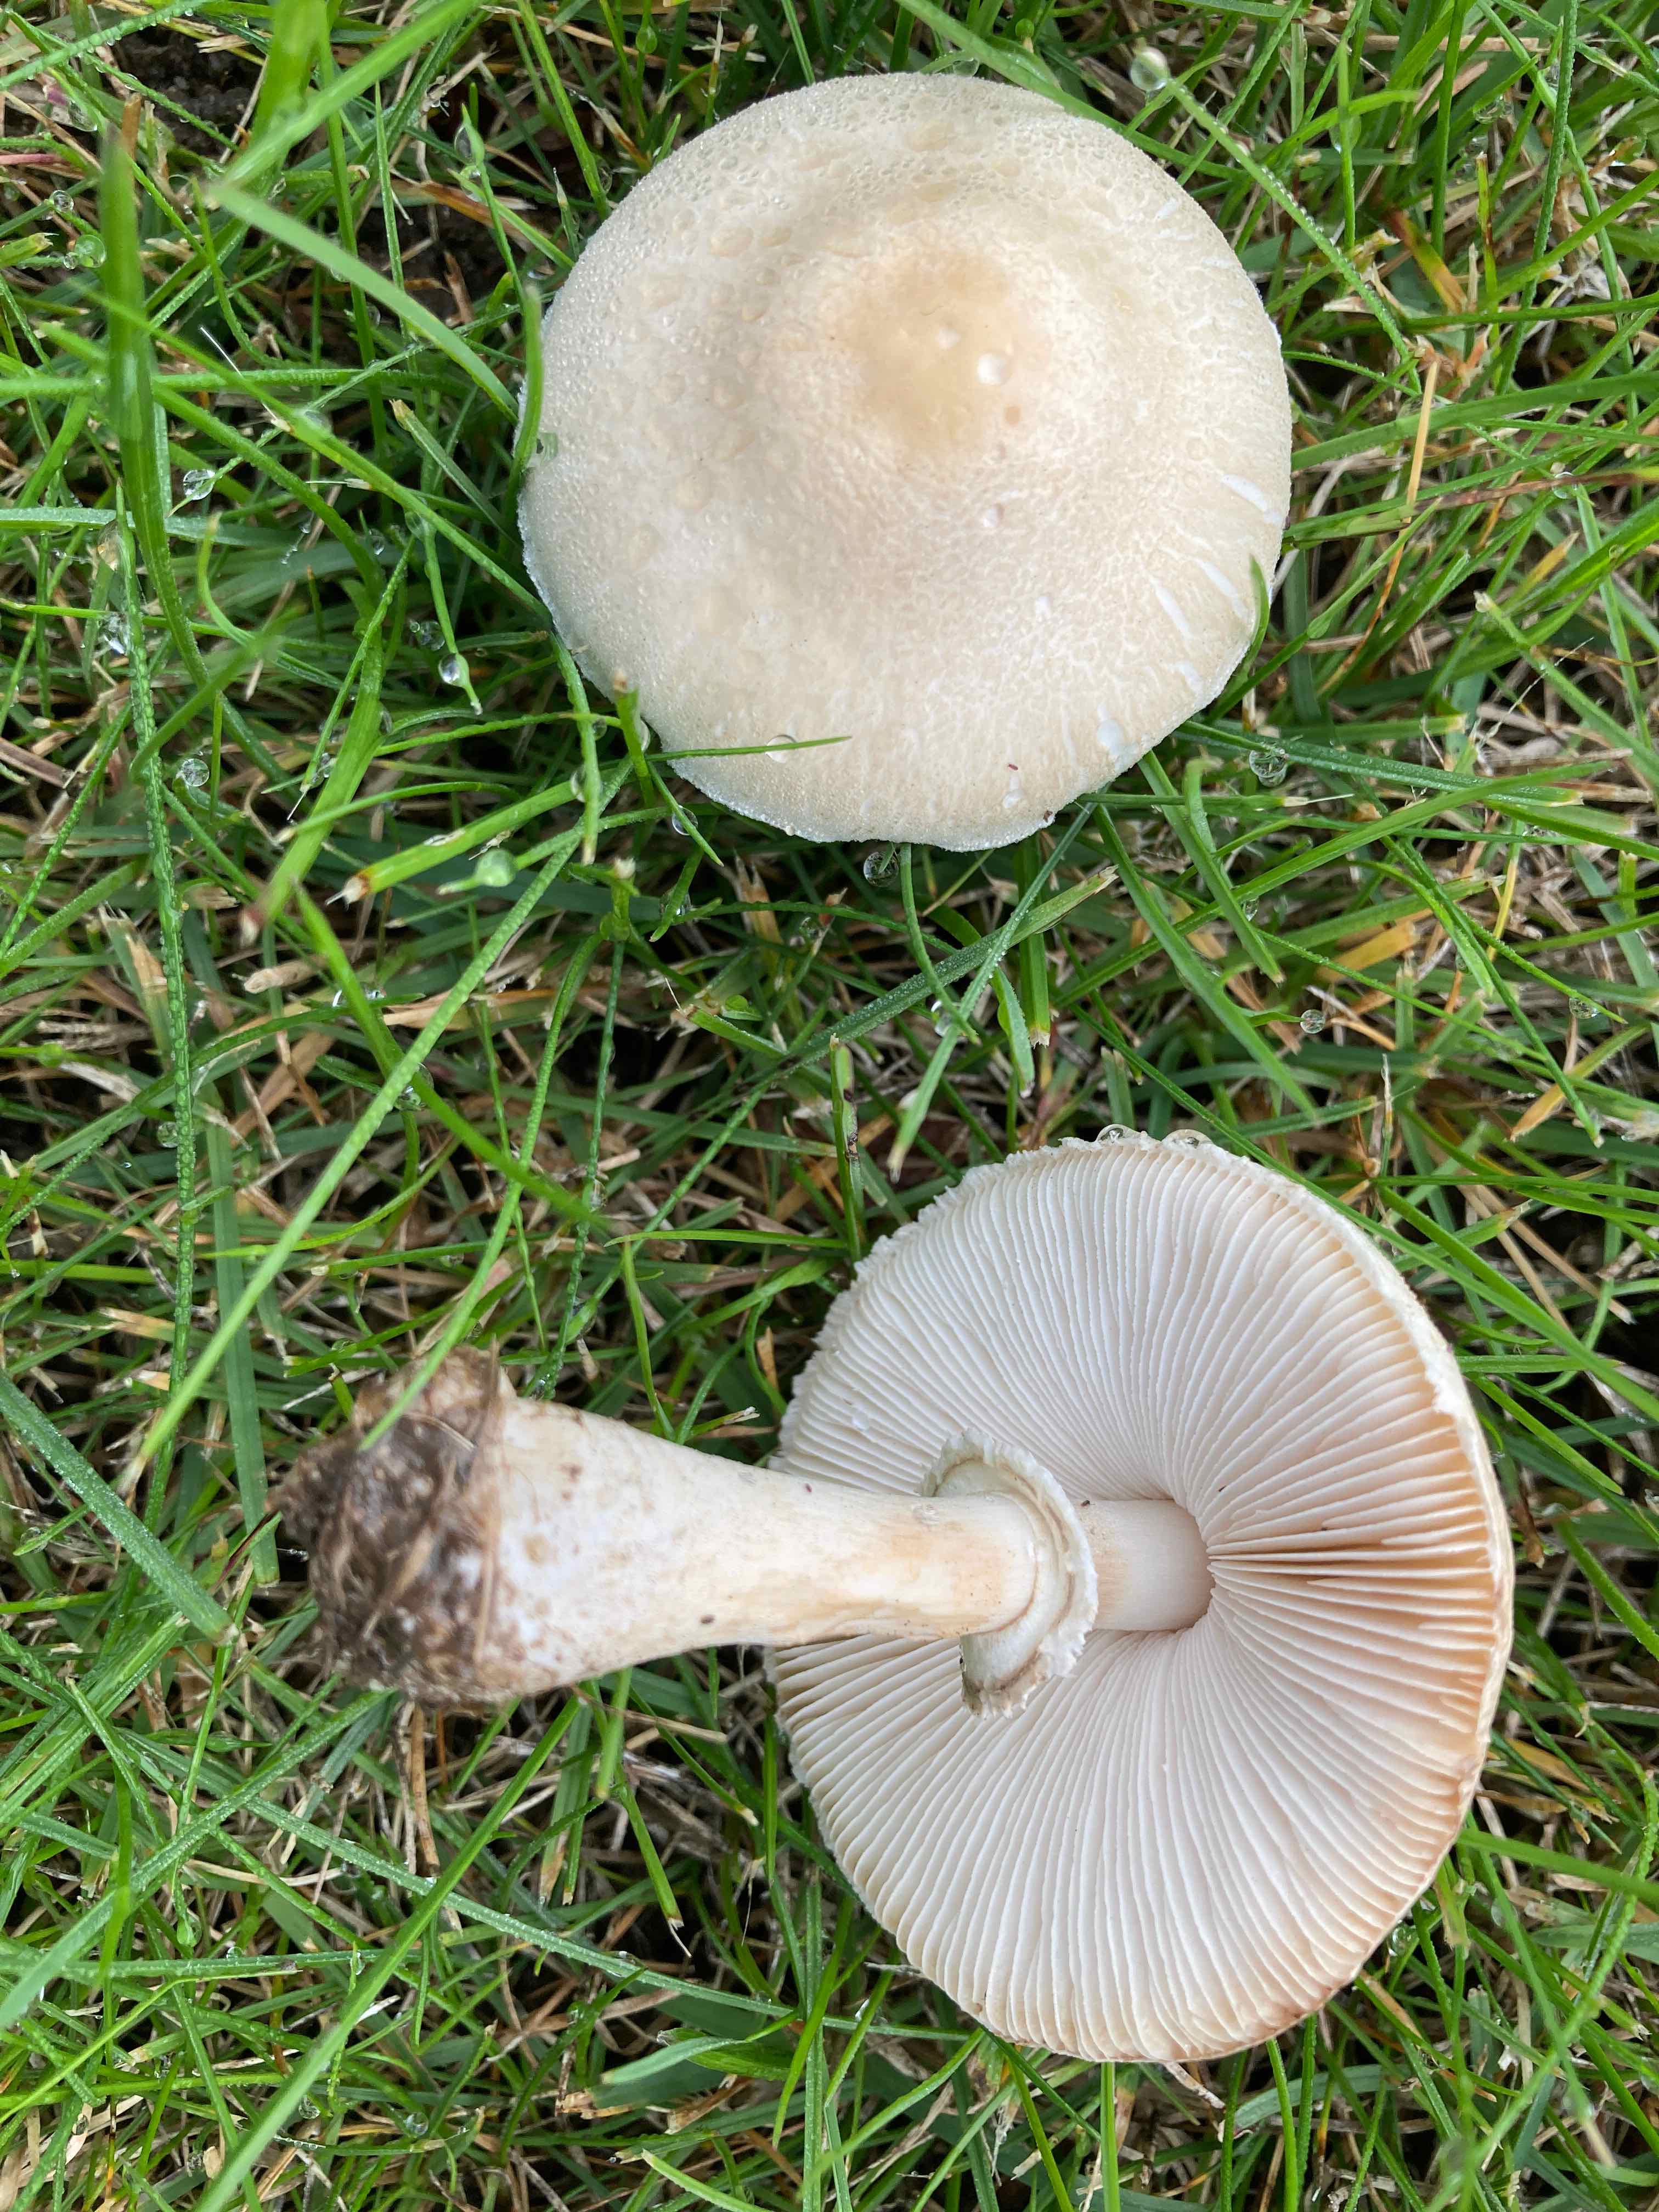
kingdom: Fungi
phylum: Basidiomycota
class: Agaricomycetes
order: Agaricales
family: Agaricaceae
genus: Leucoagaricus
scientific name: Leucoagaricus leucothites
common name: rosabladet silkehat
